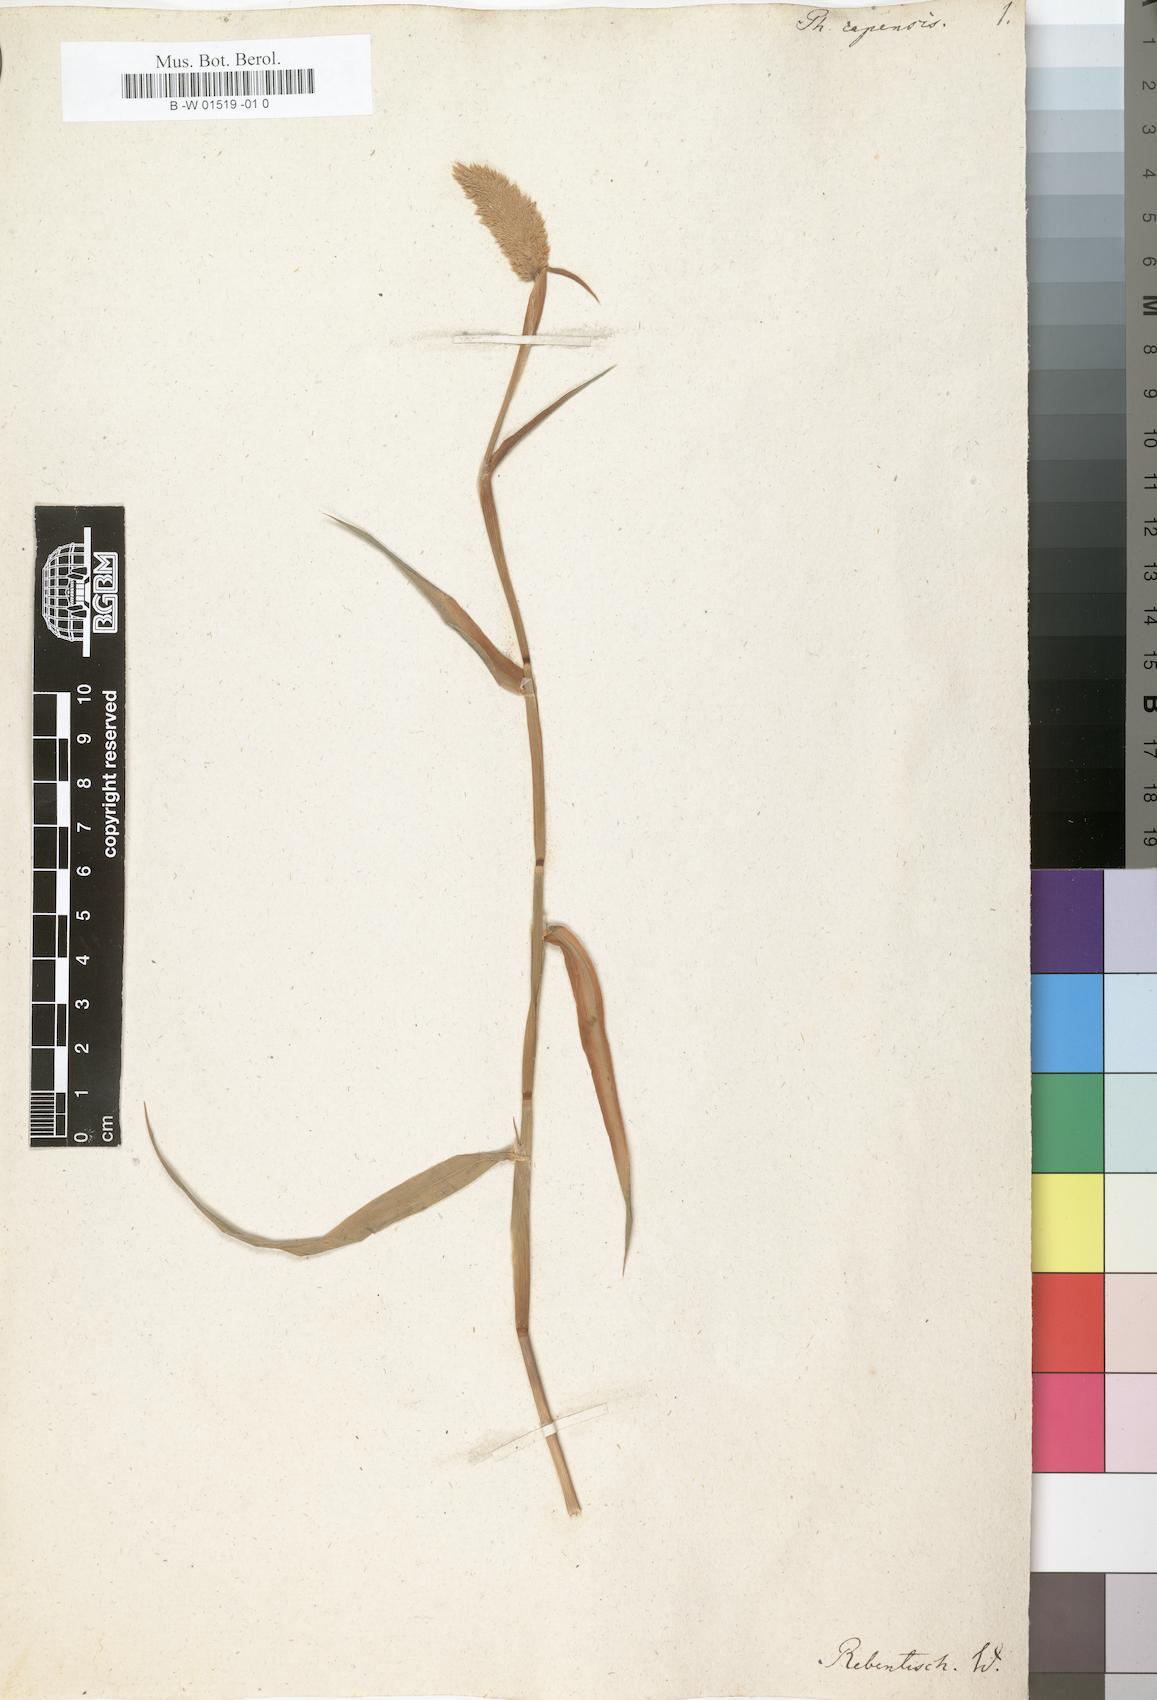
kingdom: Plantae
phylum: Tracheophyta
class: Liliopsida
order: Poales
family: Poaceae
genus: Phalaris
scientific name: Phalaris minor
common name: Littleseed canarygrass
